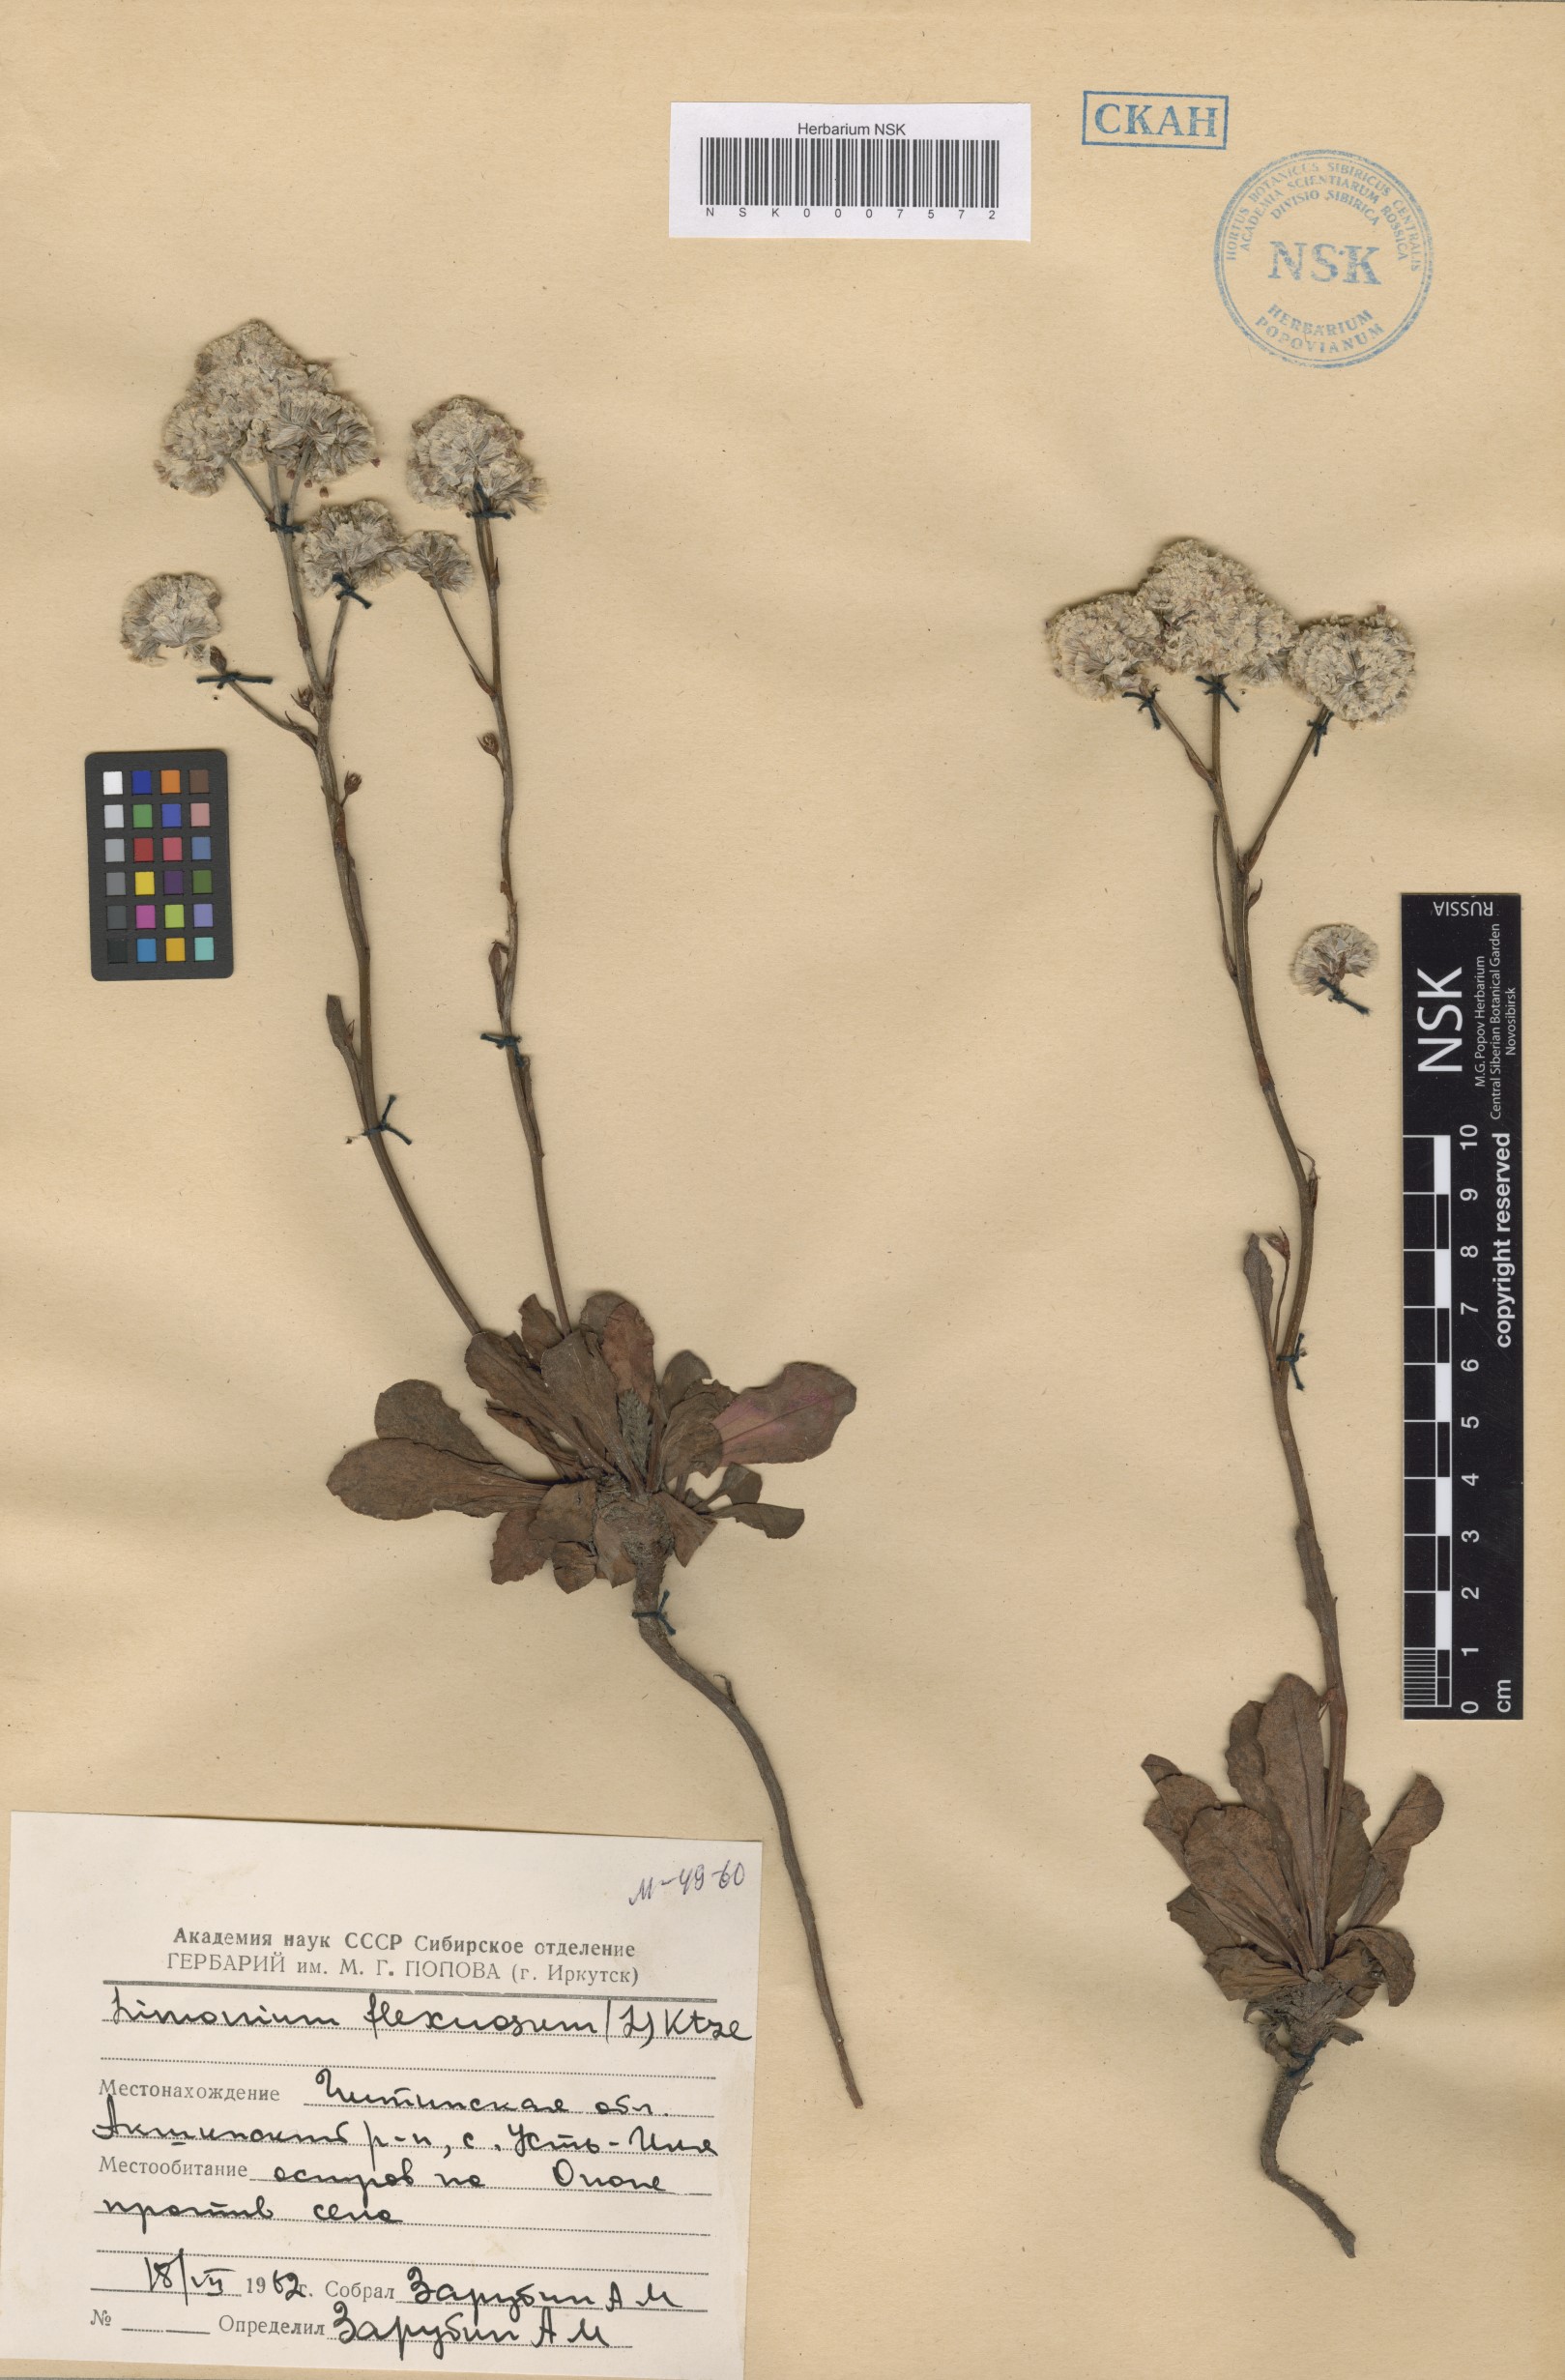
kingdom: Plantae
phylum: Tracheophyta
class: Magnoliopsida
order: Caryophyllales
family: Plumbaginaceae
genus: Limonium
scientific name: Limonium flexuosum
